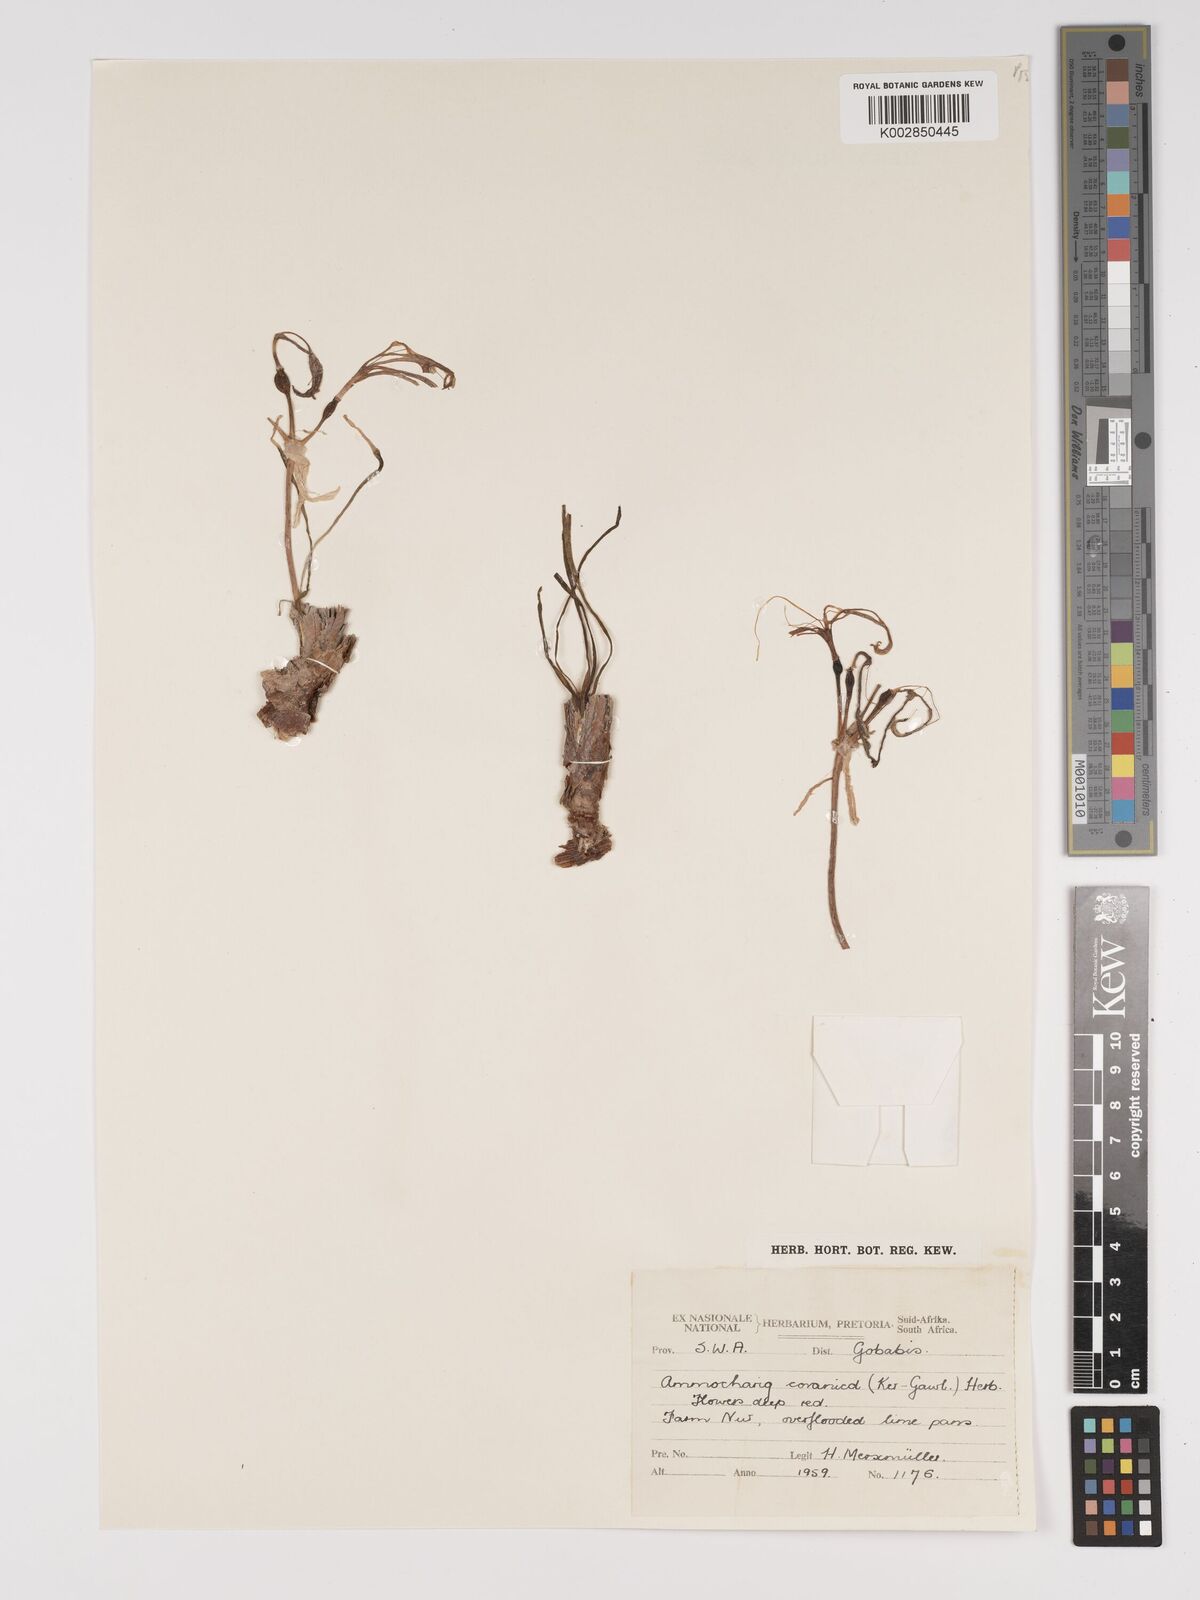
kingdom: Plantae
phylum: Tracheophyta
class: Liliopsida
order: Asparagales
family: Amaryllidaceae
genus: Ammocharis
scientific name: Ammocharis coranica
